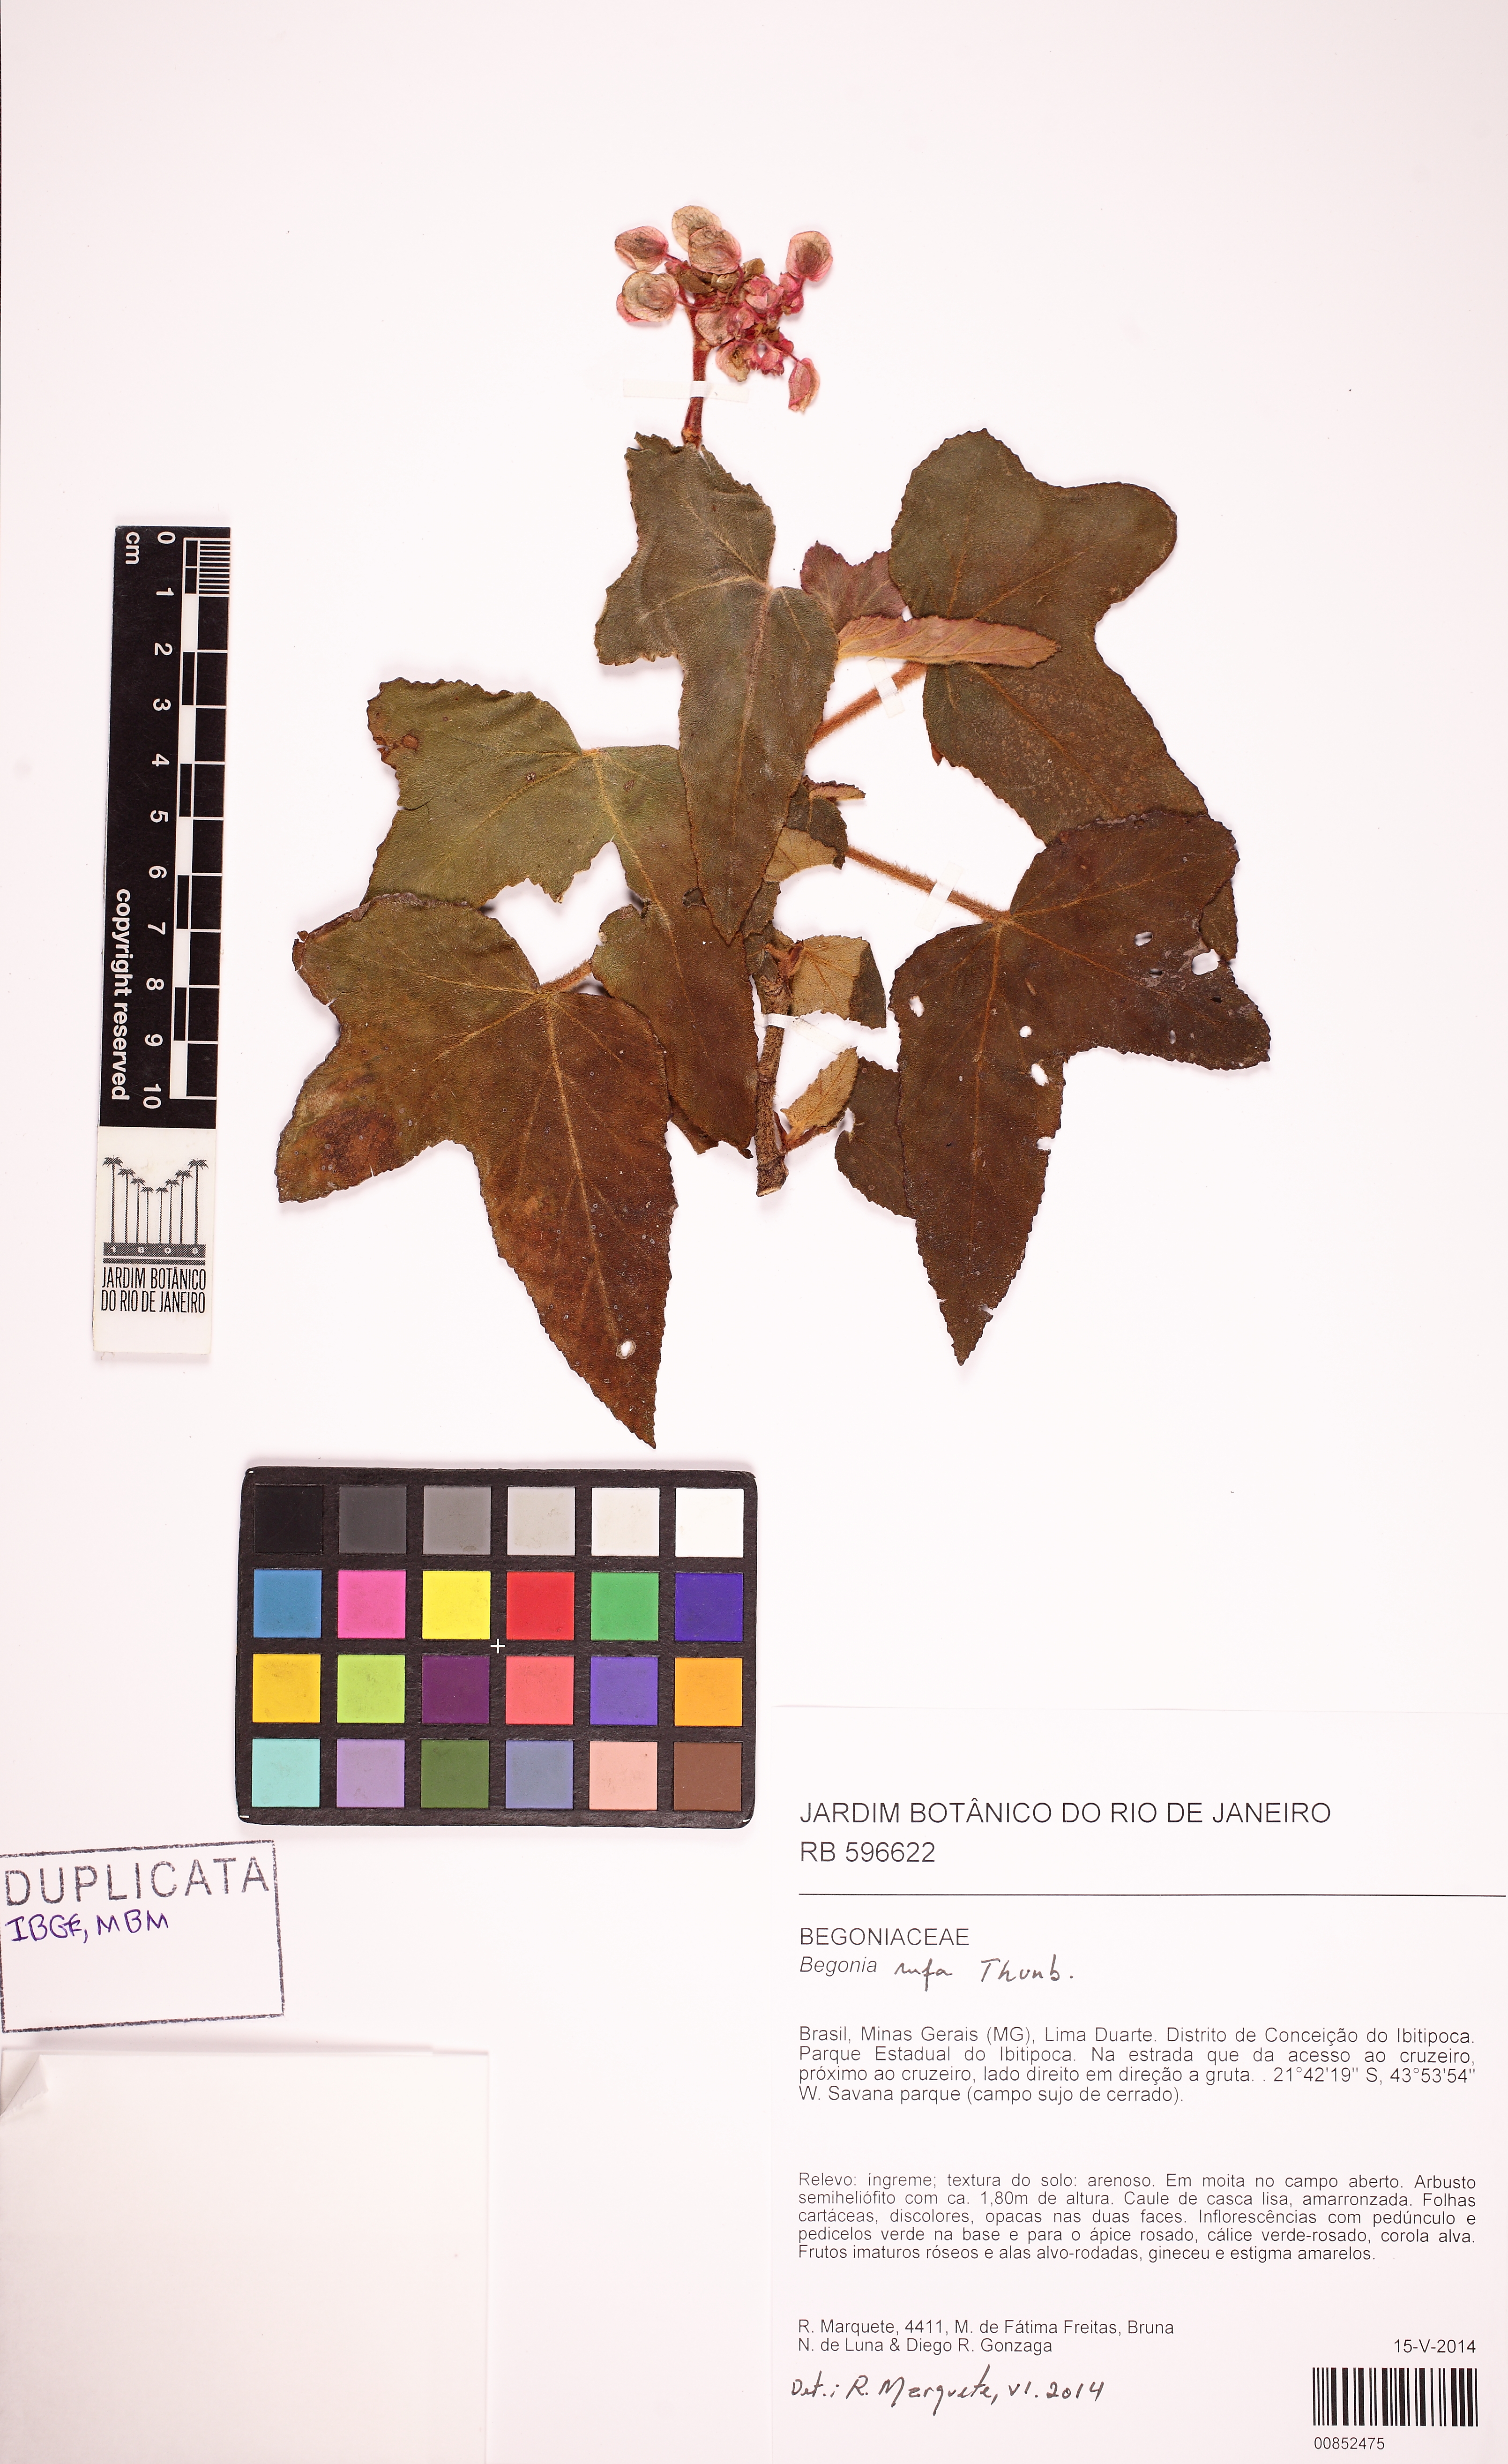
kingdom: Plantae
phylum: Tracheophyta
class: Magnoliopsida
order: Cucurbitales
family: Begoniaceae
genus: Begonia
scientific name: Begonia rufa
